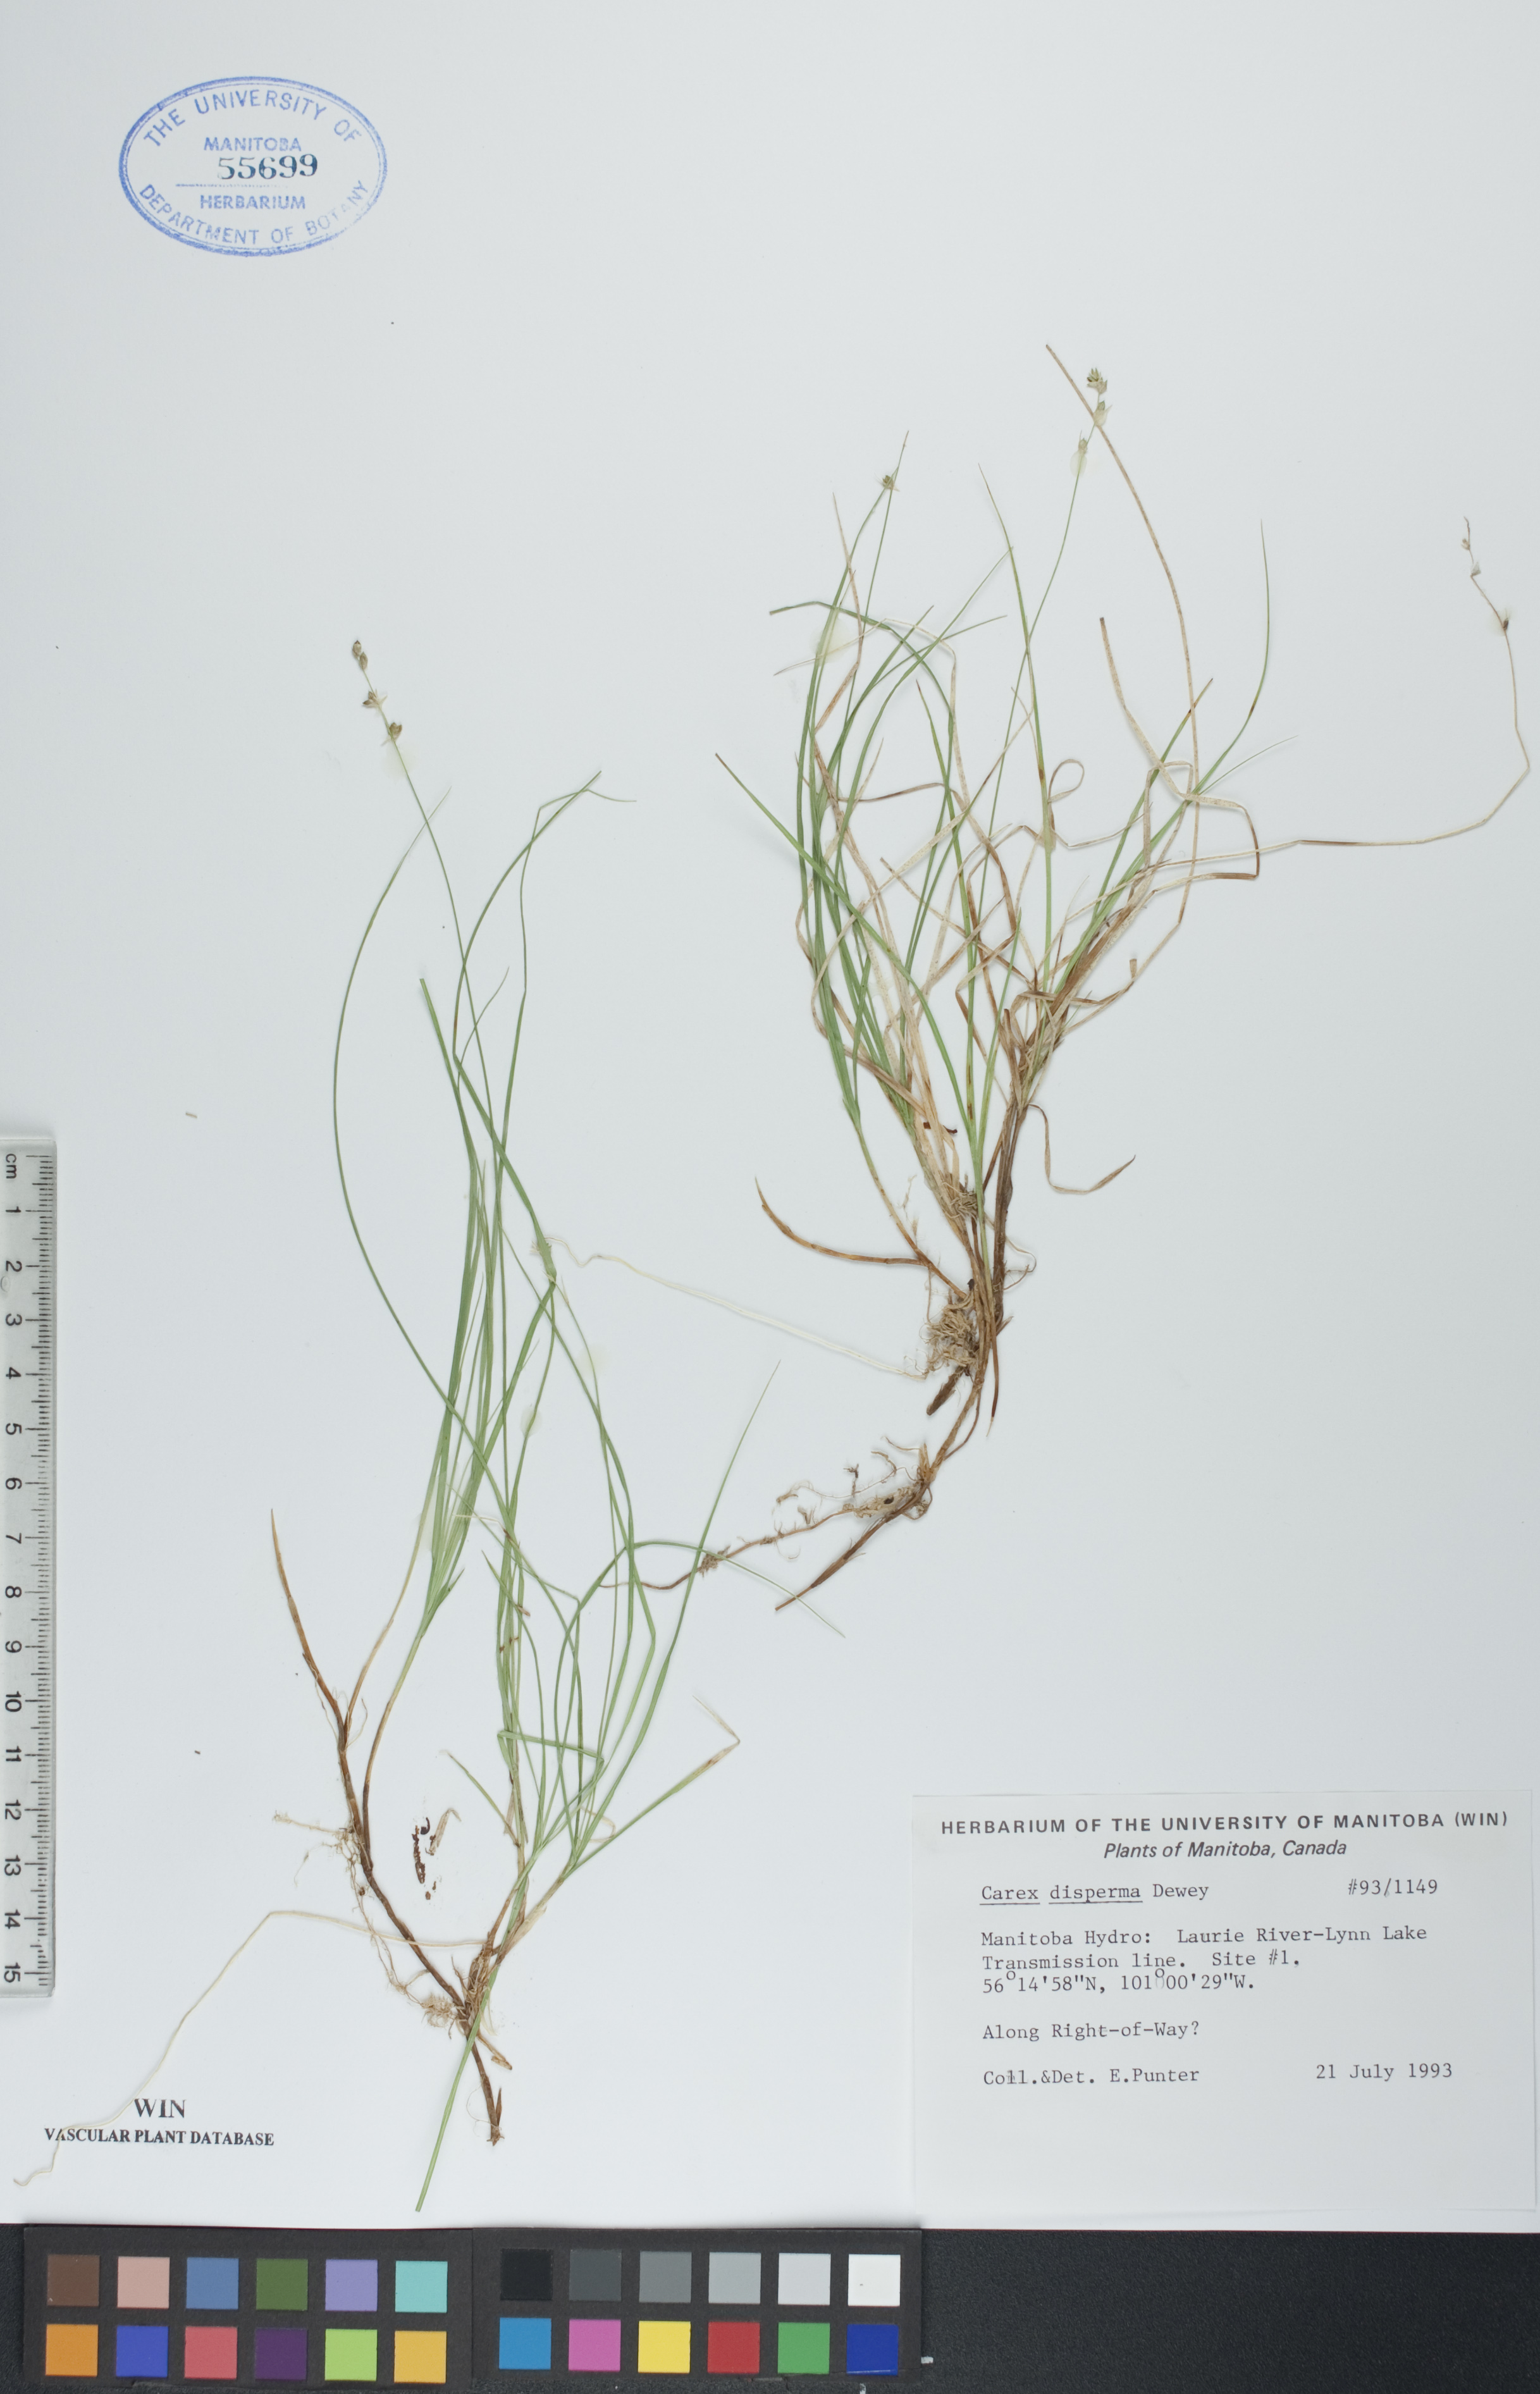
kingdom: Plantae
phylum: Tracheophyta
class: Liliopsida
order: Poales
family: Cyperaceae
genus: Carex
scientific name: Carex disperma
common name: Short-leaved sedge
